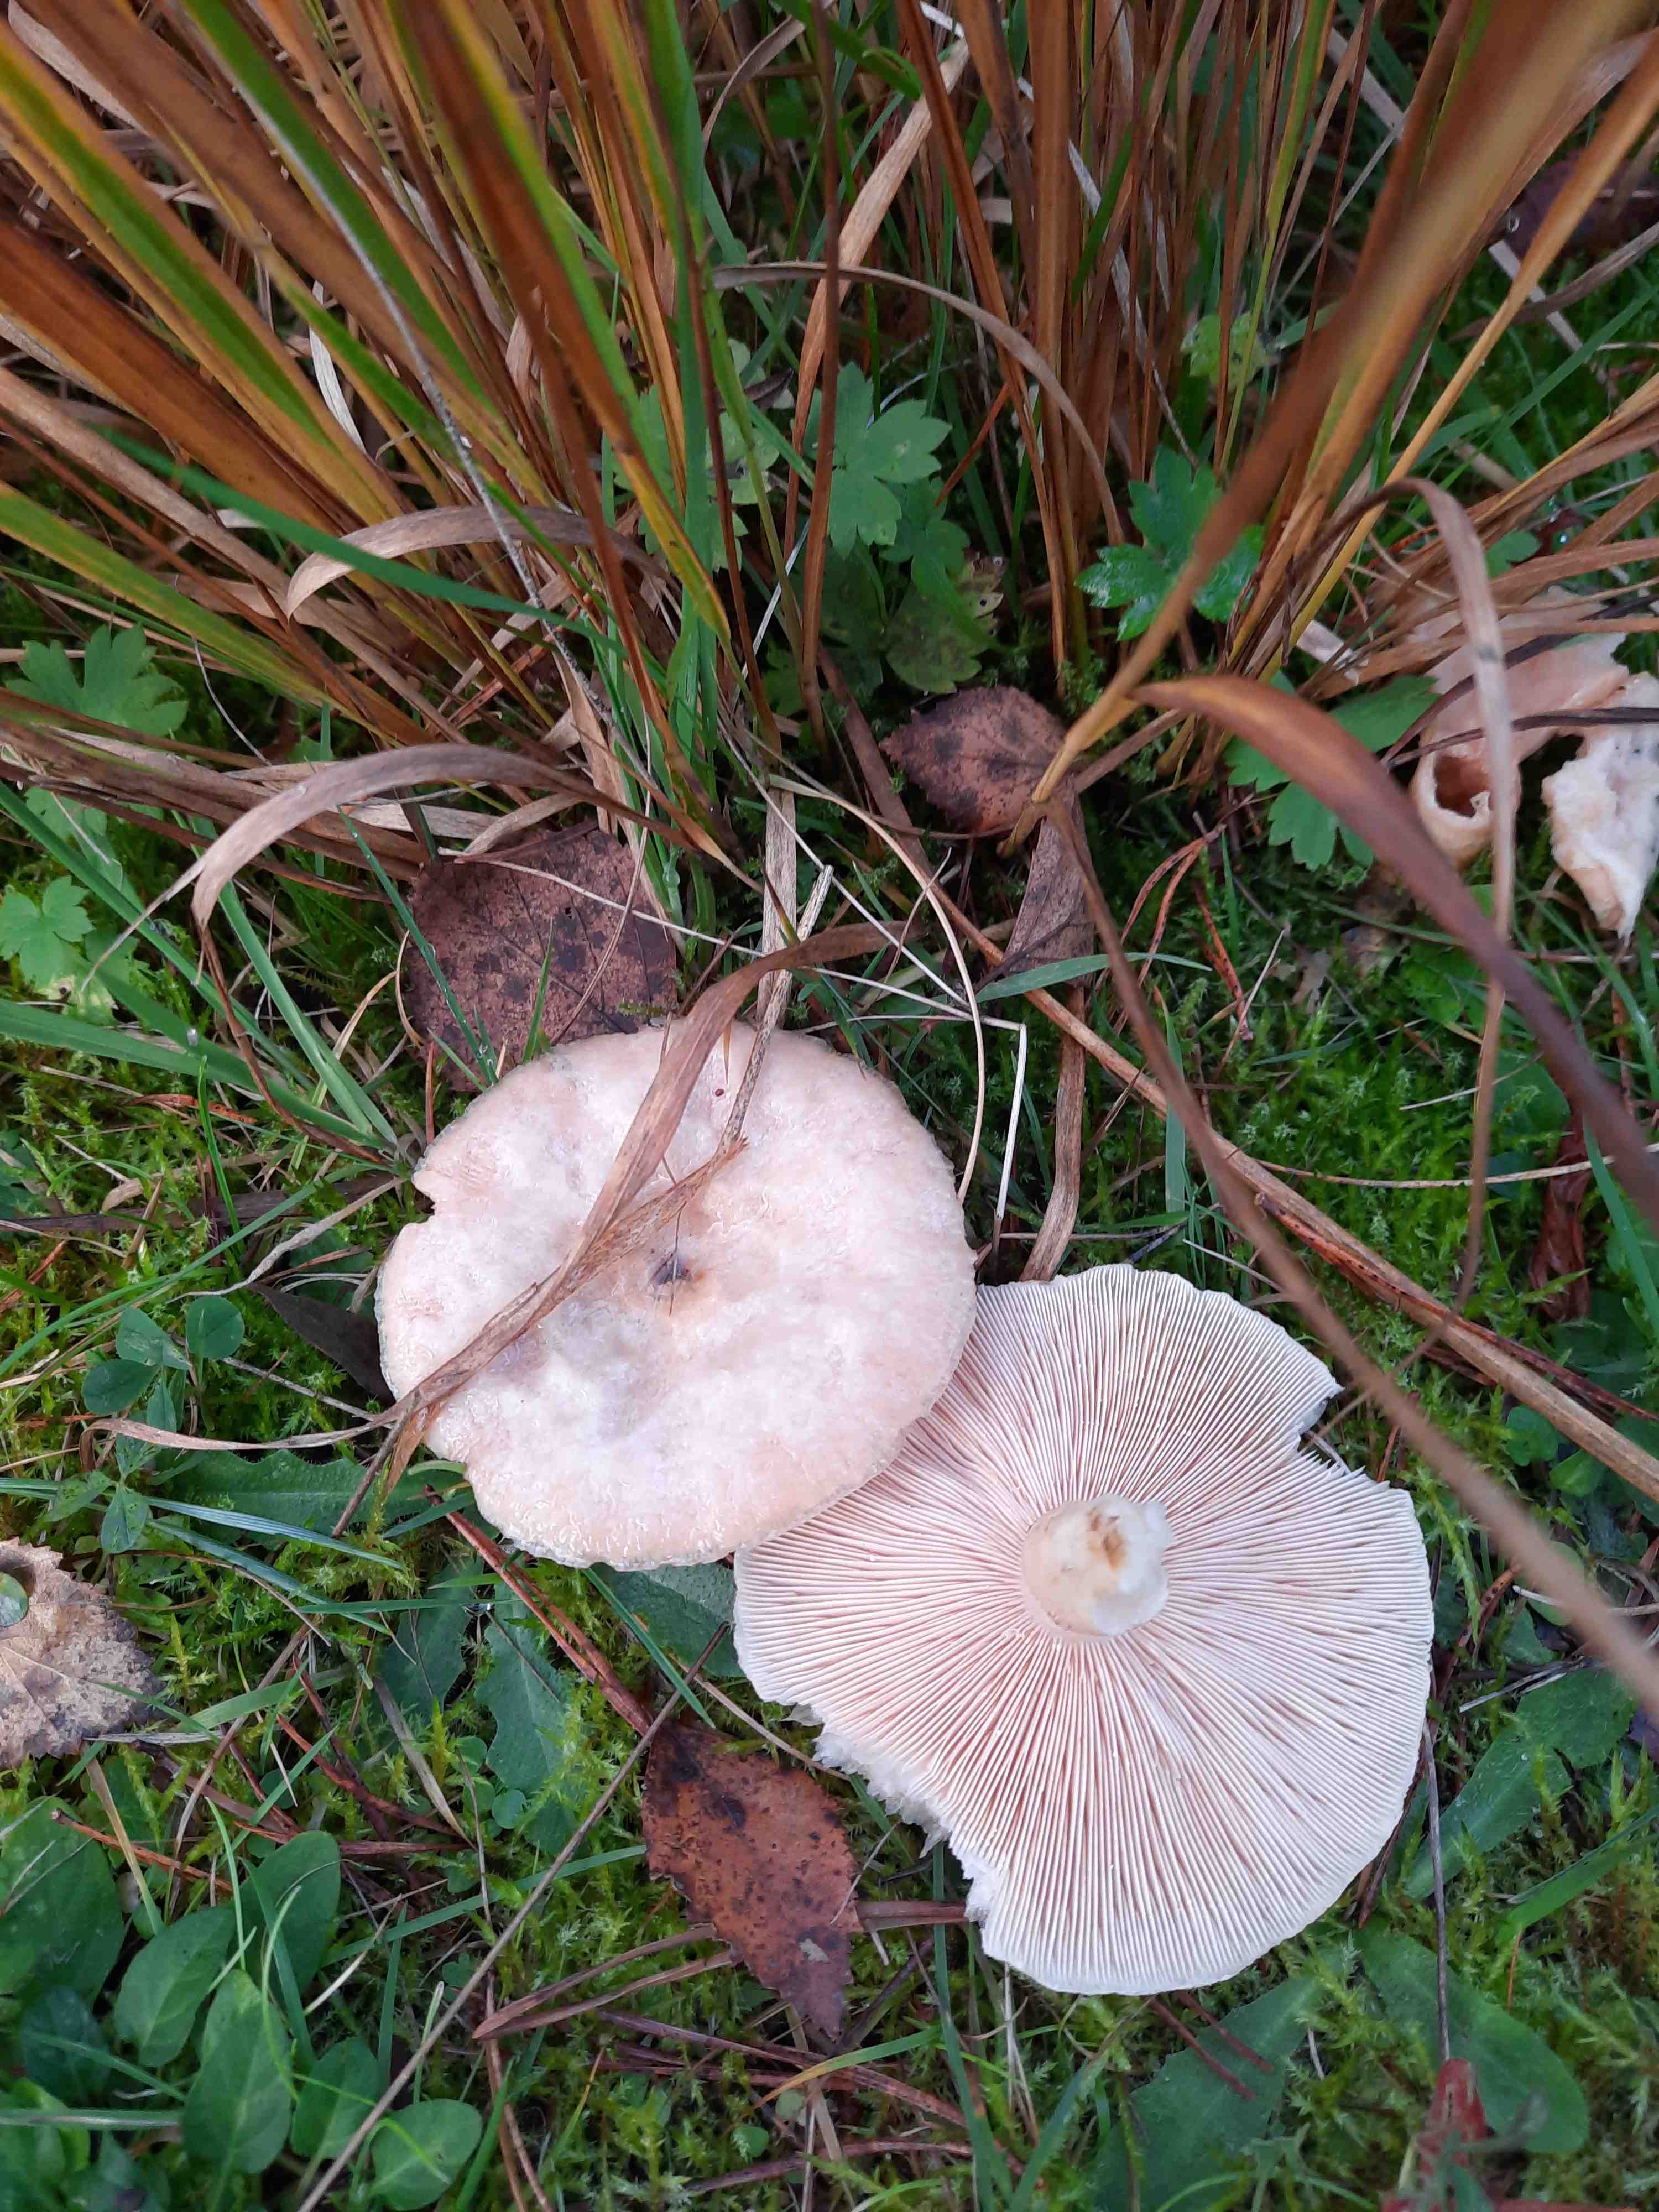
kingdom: Fungi
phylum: Basidiomycota
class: Agaricomycetes
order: Russulales
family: Russulaceae
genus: Lactarius
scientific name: Lactarius pubescens
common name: dunet mælkehat
